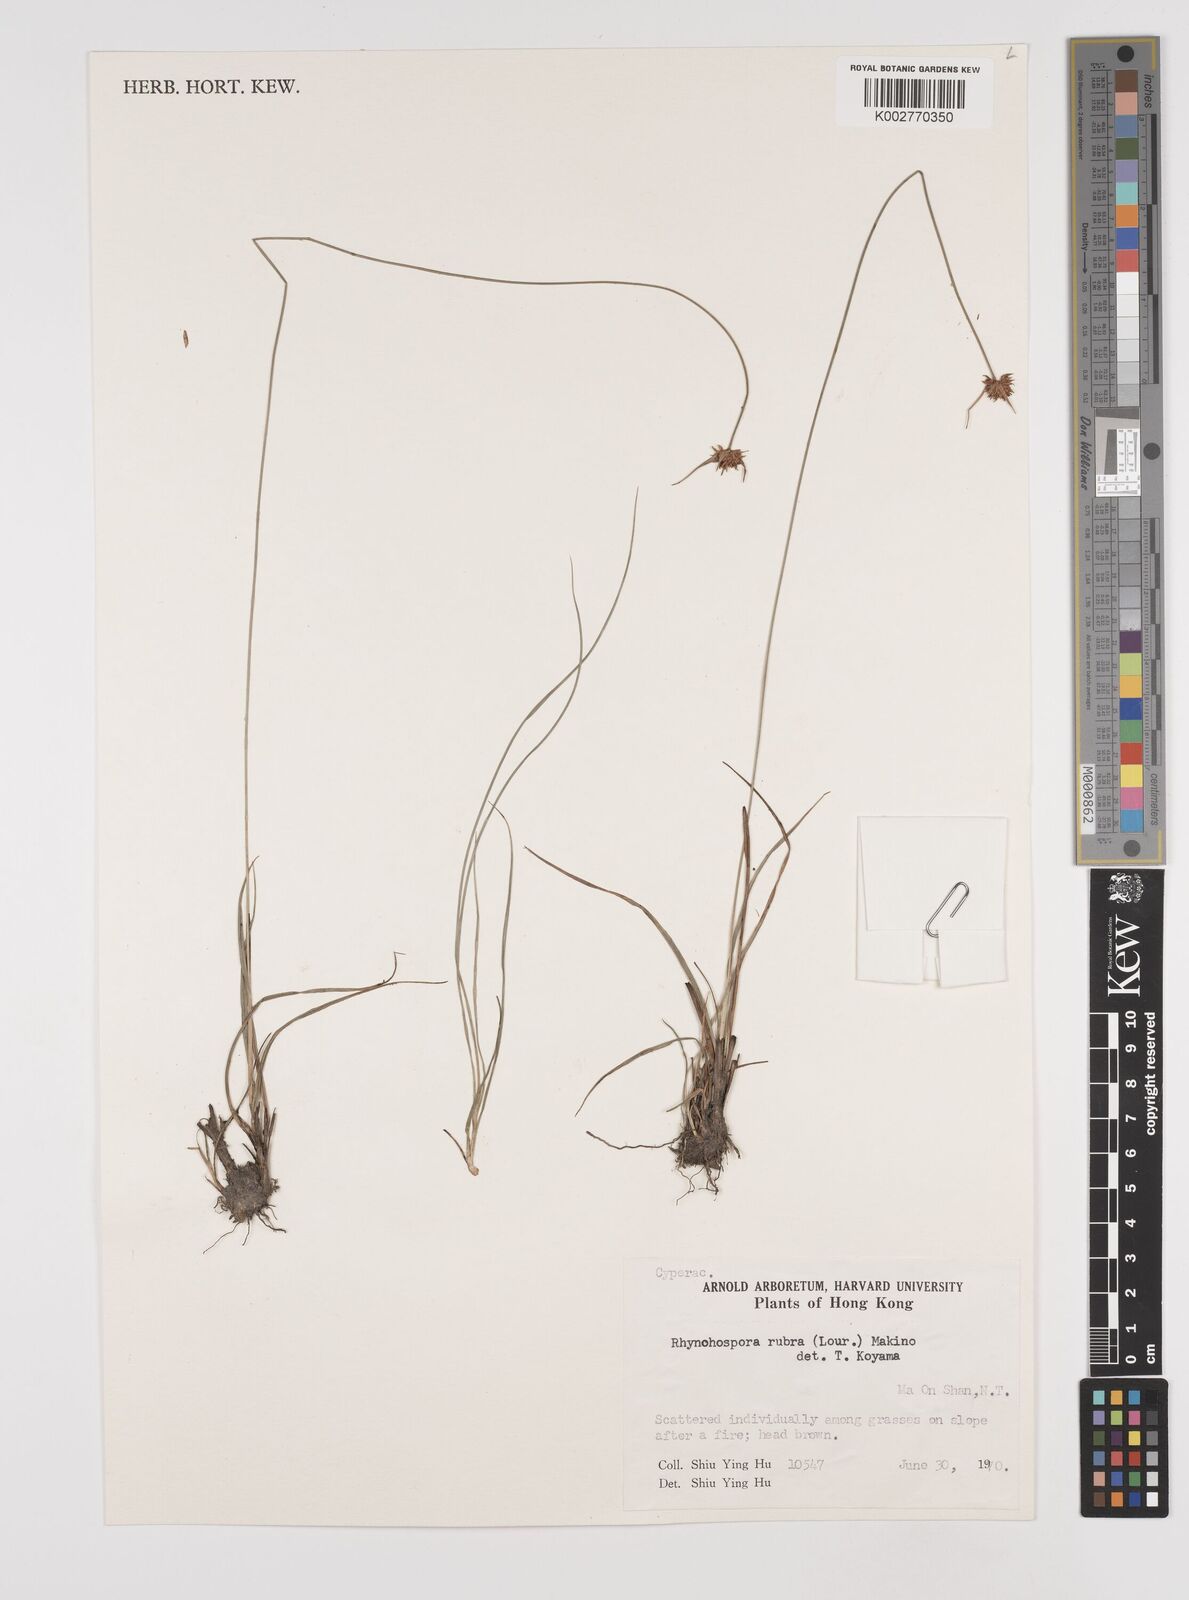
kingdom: Plantae
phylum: Tracheophyta
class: Liliopsida
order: Poales
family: Cyperaceae
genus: Rhynchospora
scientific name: Rhynchospora rubra
